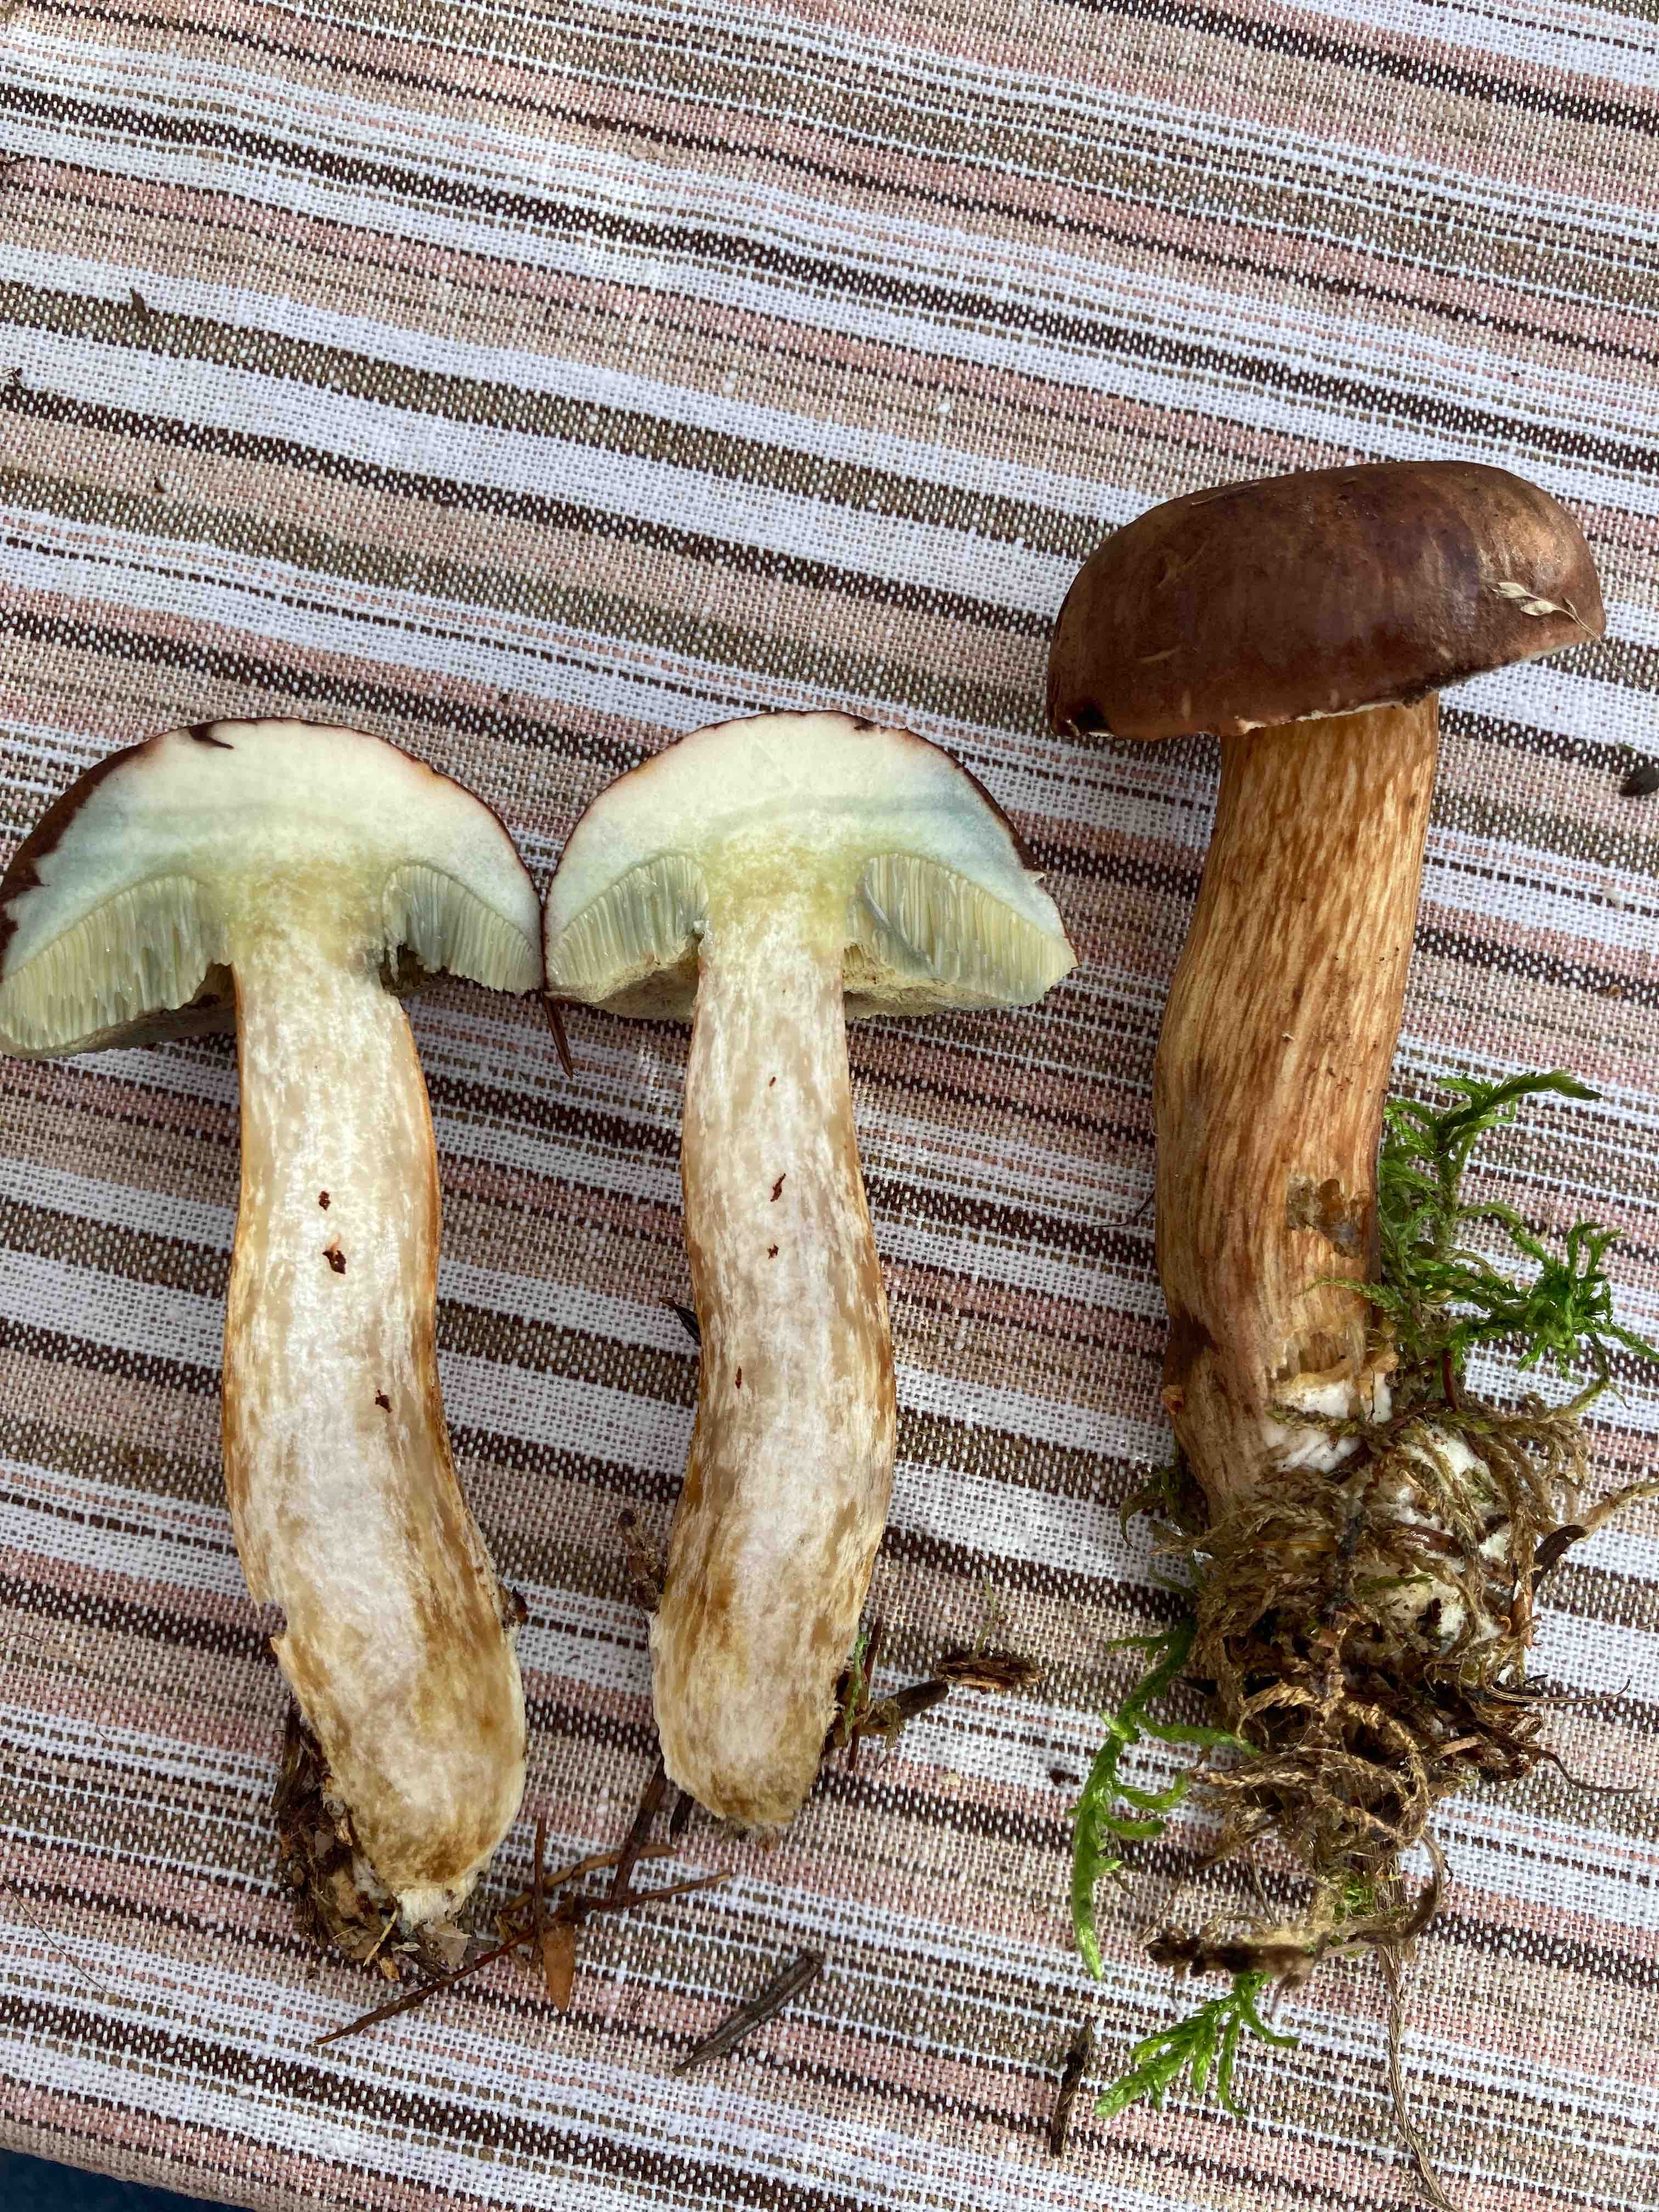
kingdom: Fungi
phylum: Basidiomycota
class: Agaricomycetes
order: Boletales
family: Boletaceae
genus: Imleria
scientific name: Imleria badia
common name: brunstokket rørhat
